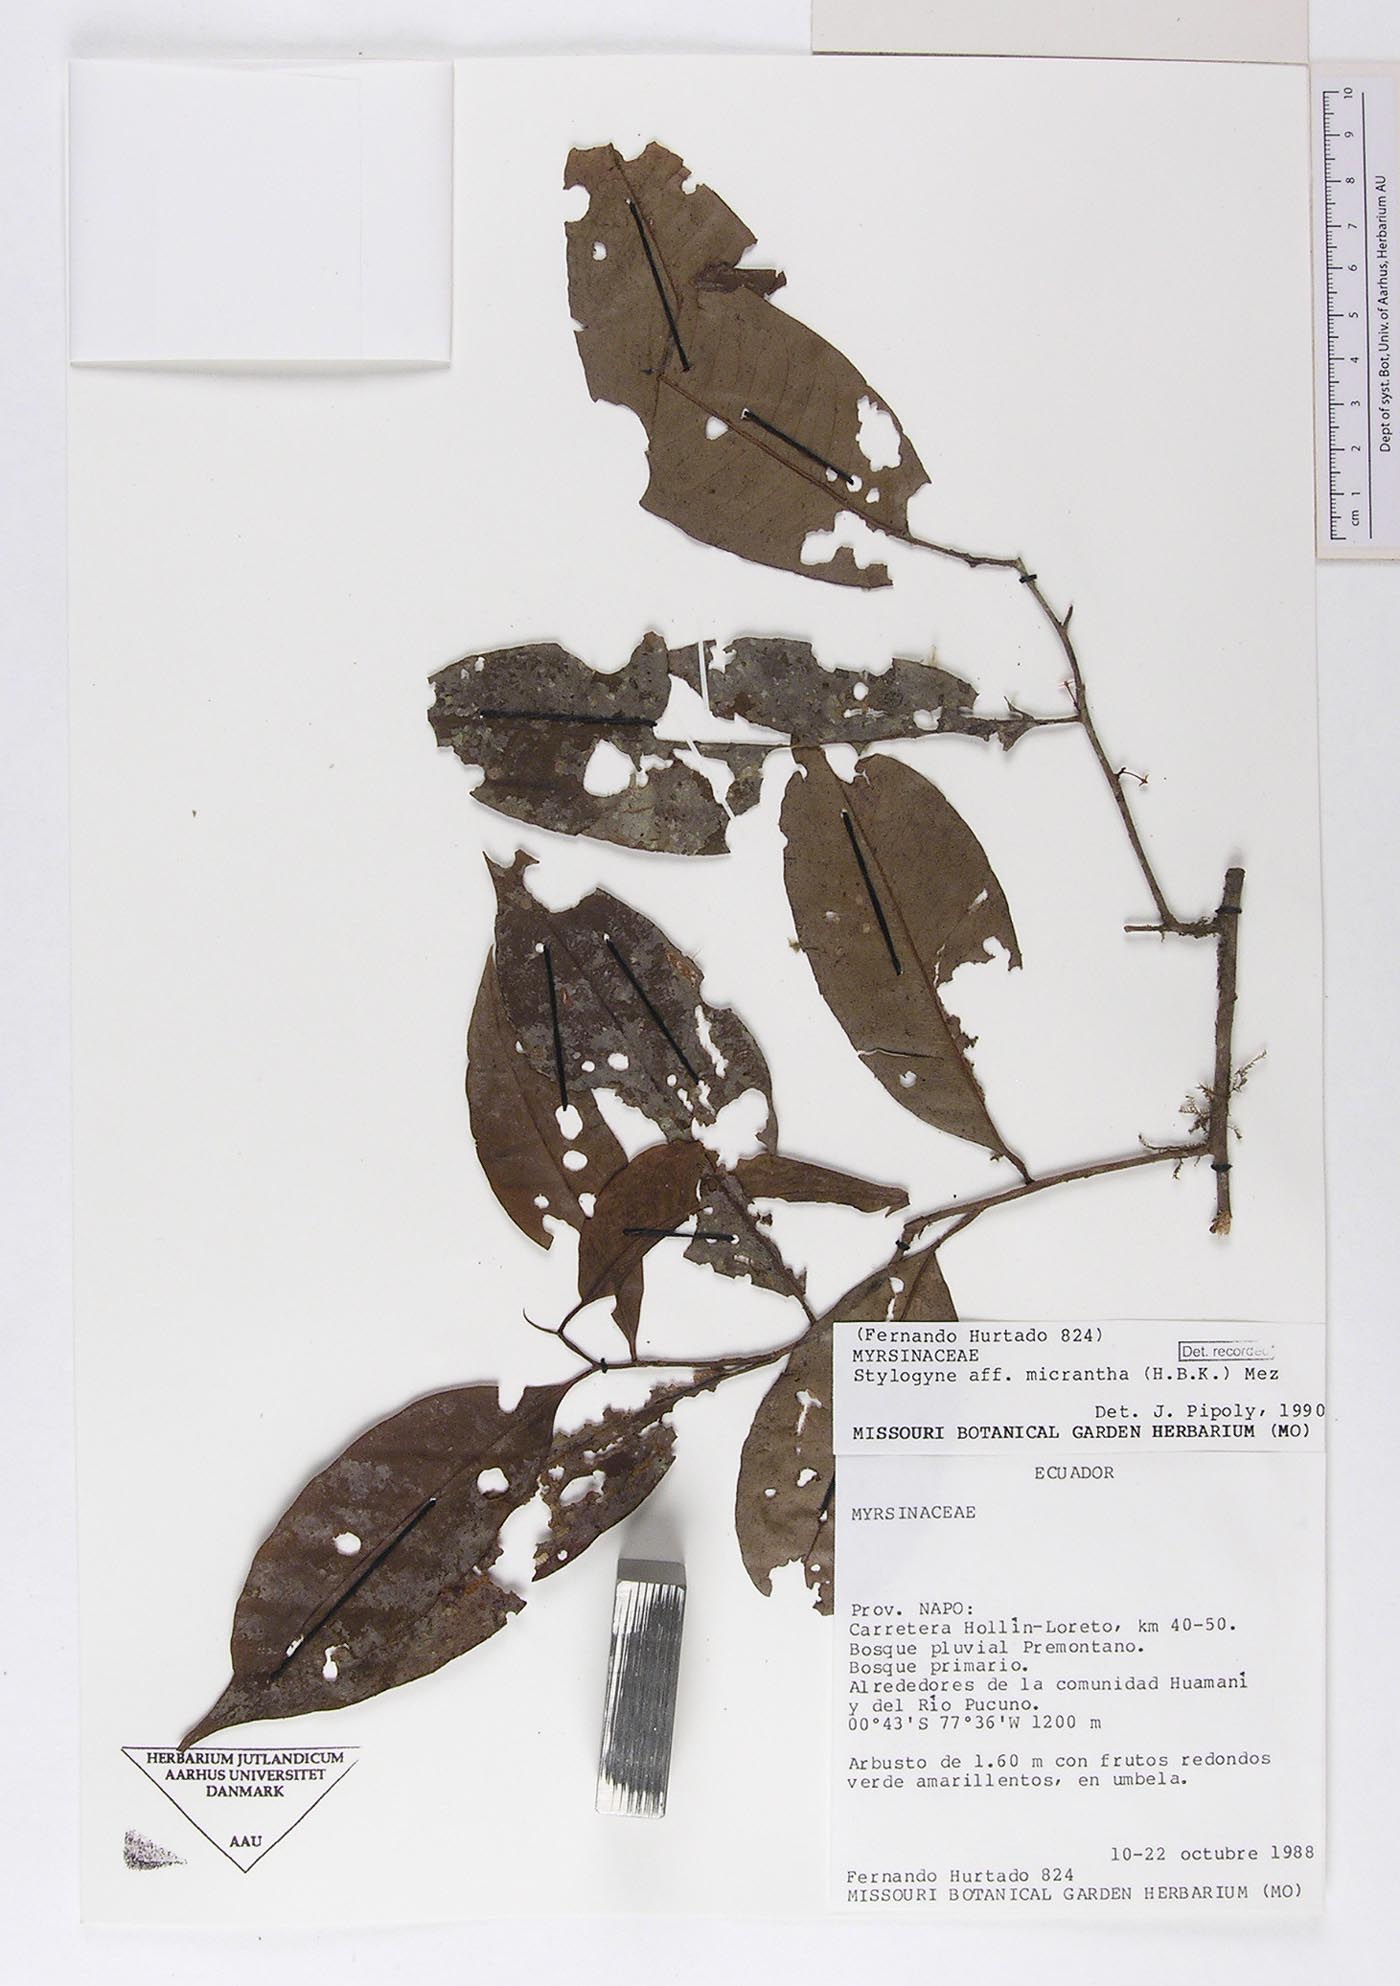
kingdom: Plantae
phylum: Tracheophyta
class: Magnoliopsida
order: Ericales
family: Primulaceae
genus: Stylogyne
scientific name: Stylogyne micrantha
